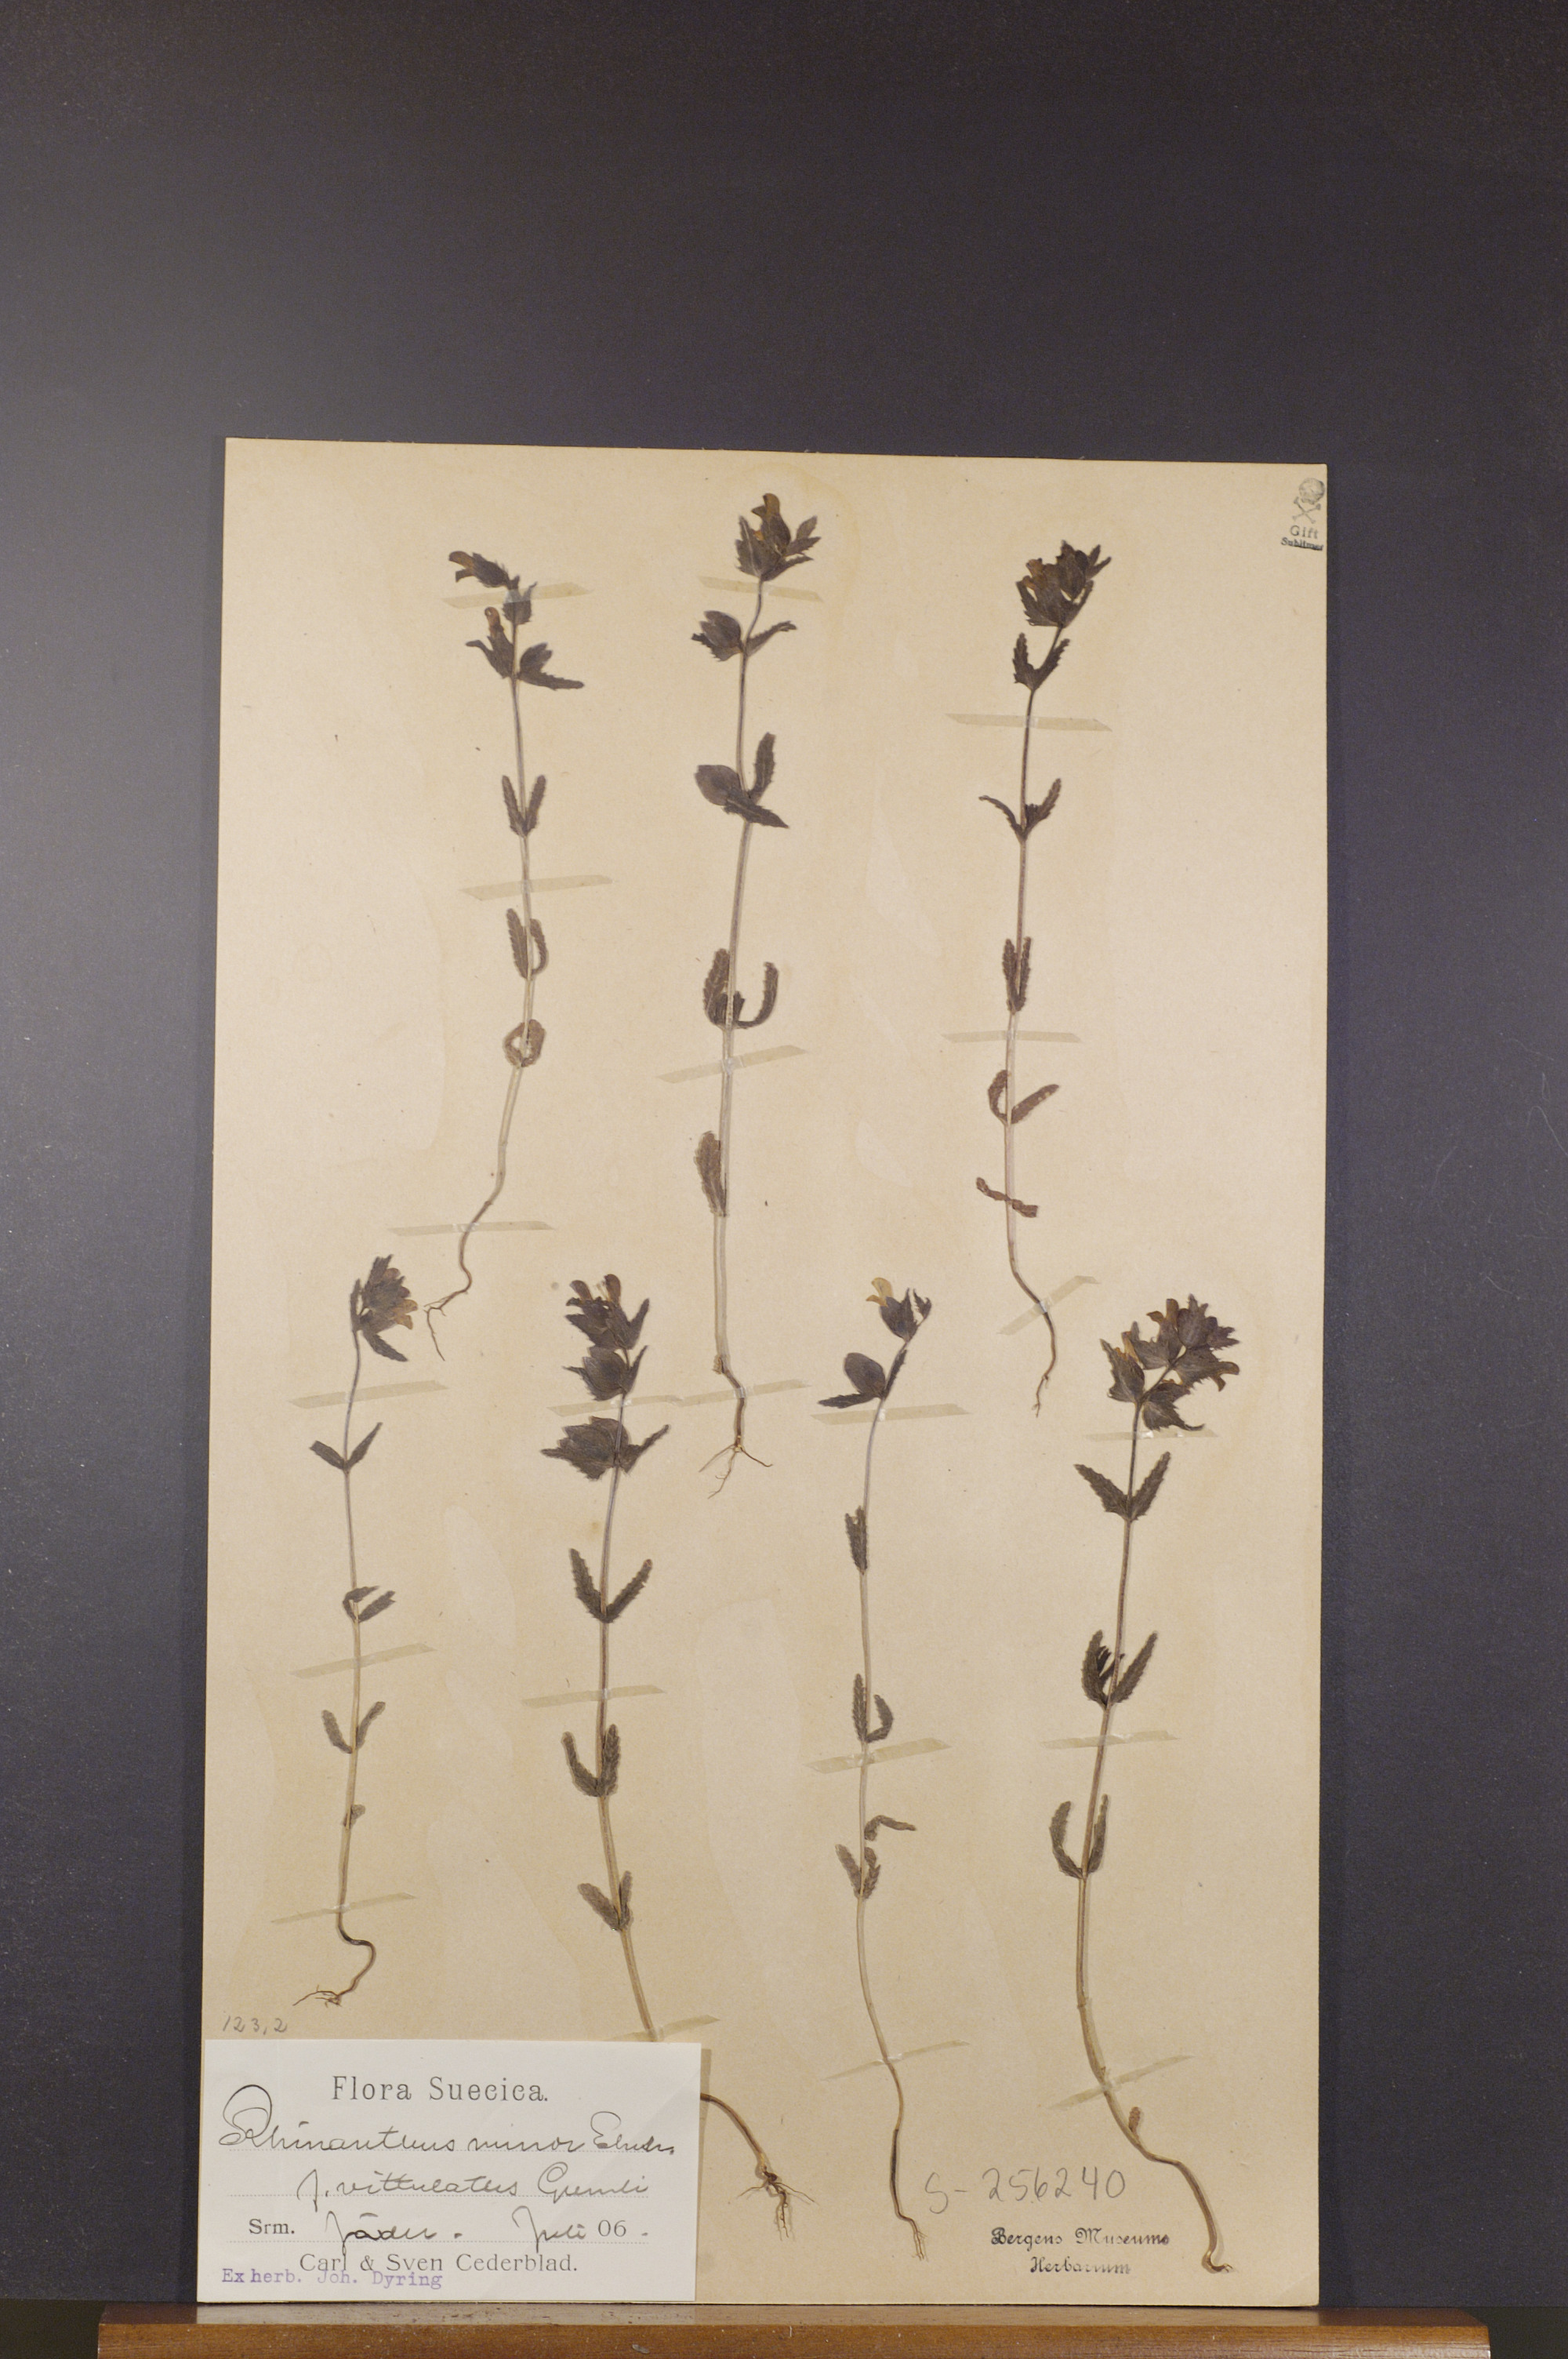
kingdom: Plantae
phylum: Tracheophyta
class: Magnoliopsida
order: Lamiales
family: Orobanchaceae
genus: Rhinanthus
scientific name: Rhinanthus minor
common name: Yellow-rattle
